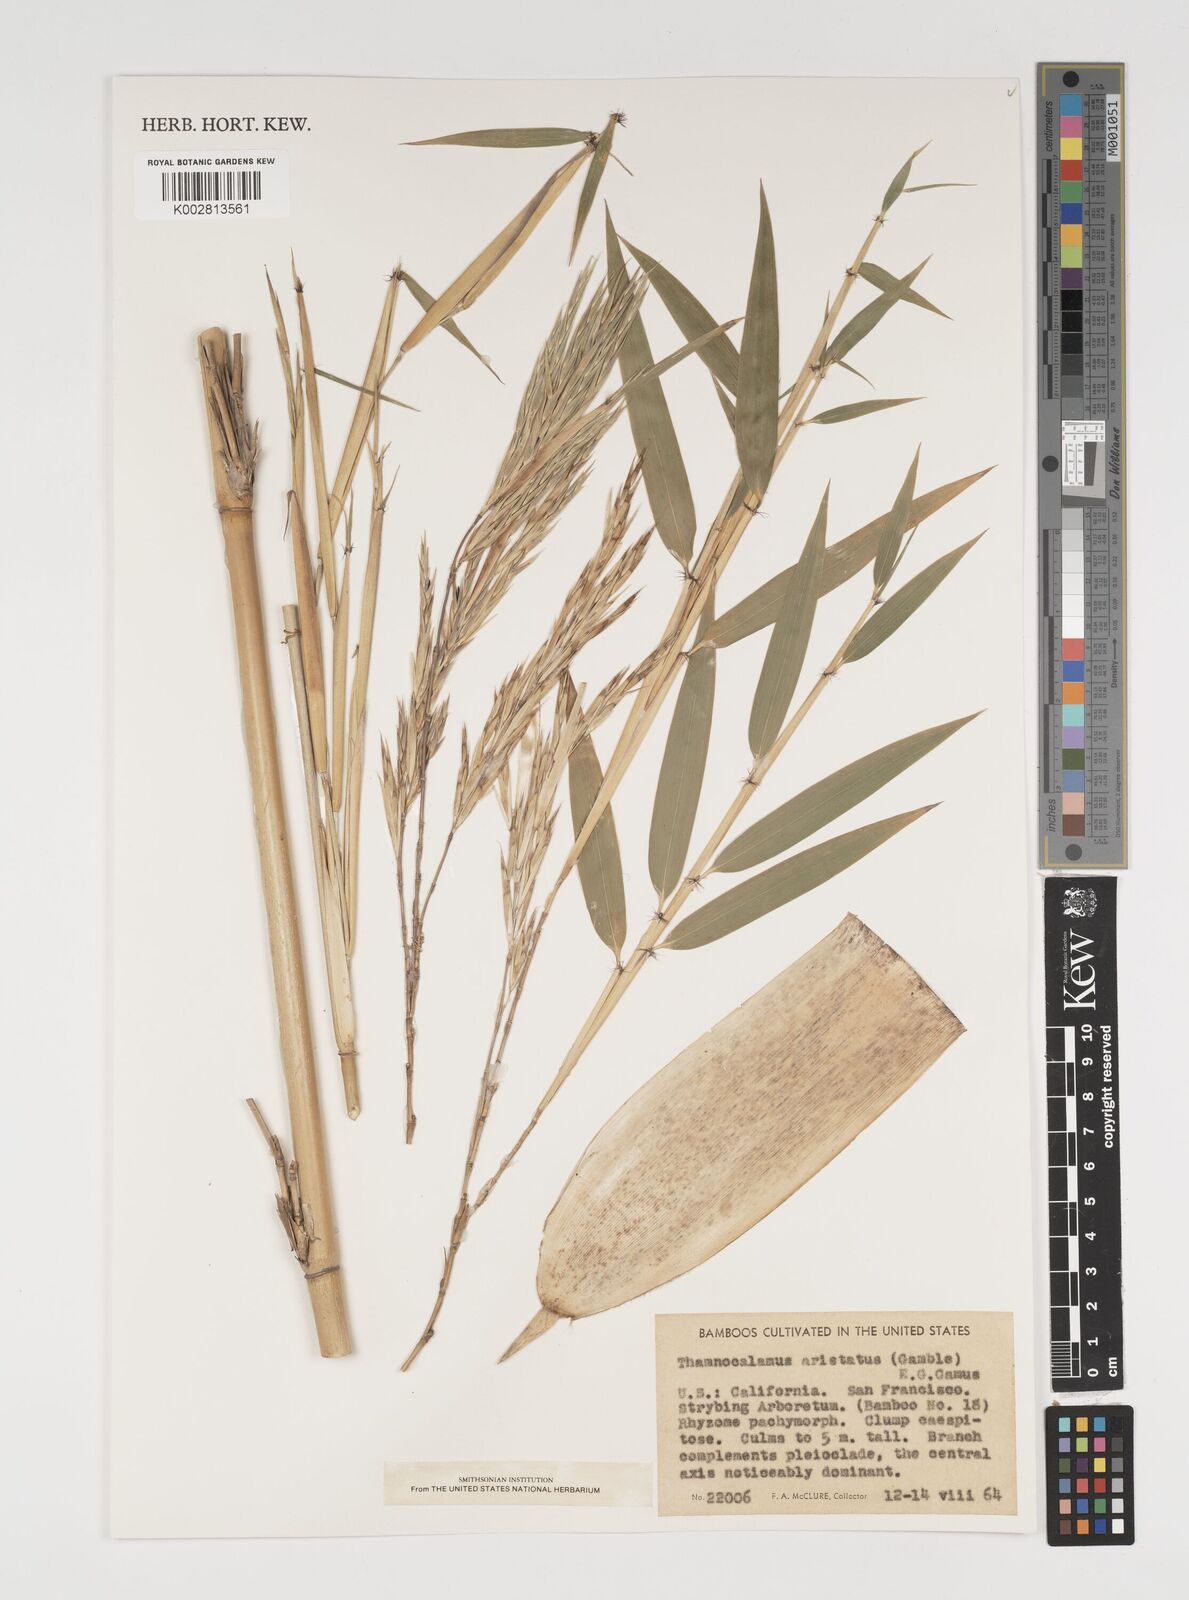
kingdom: Plantae
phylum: Tracheophyta
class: Liliopsida
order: Poales
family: Poaceae
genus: Thamnocalamus
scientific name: Thamnocalamus spathiflorus
